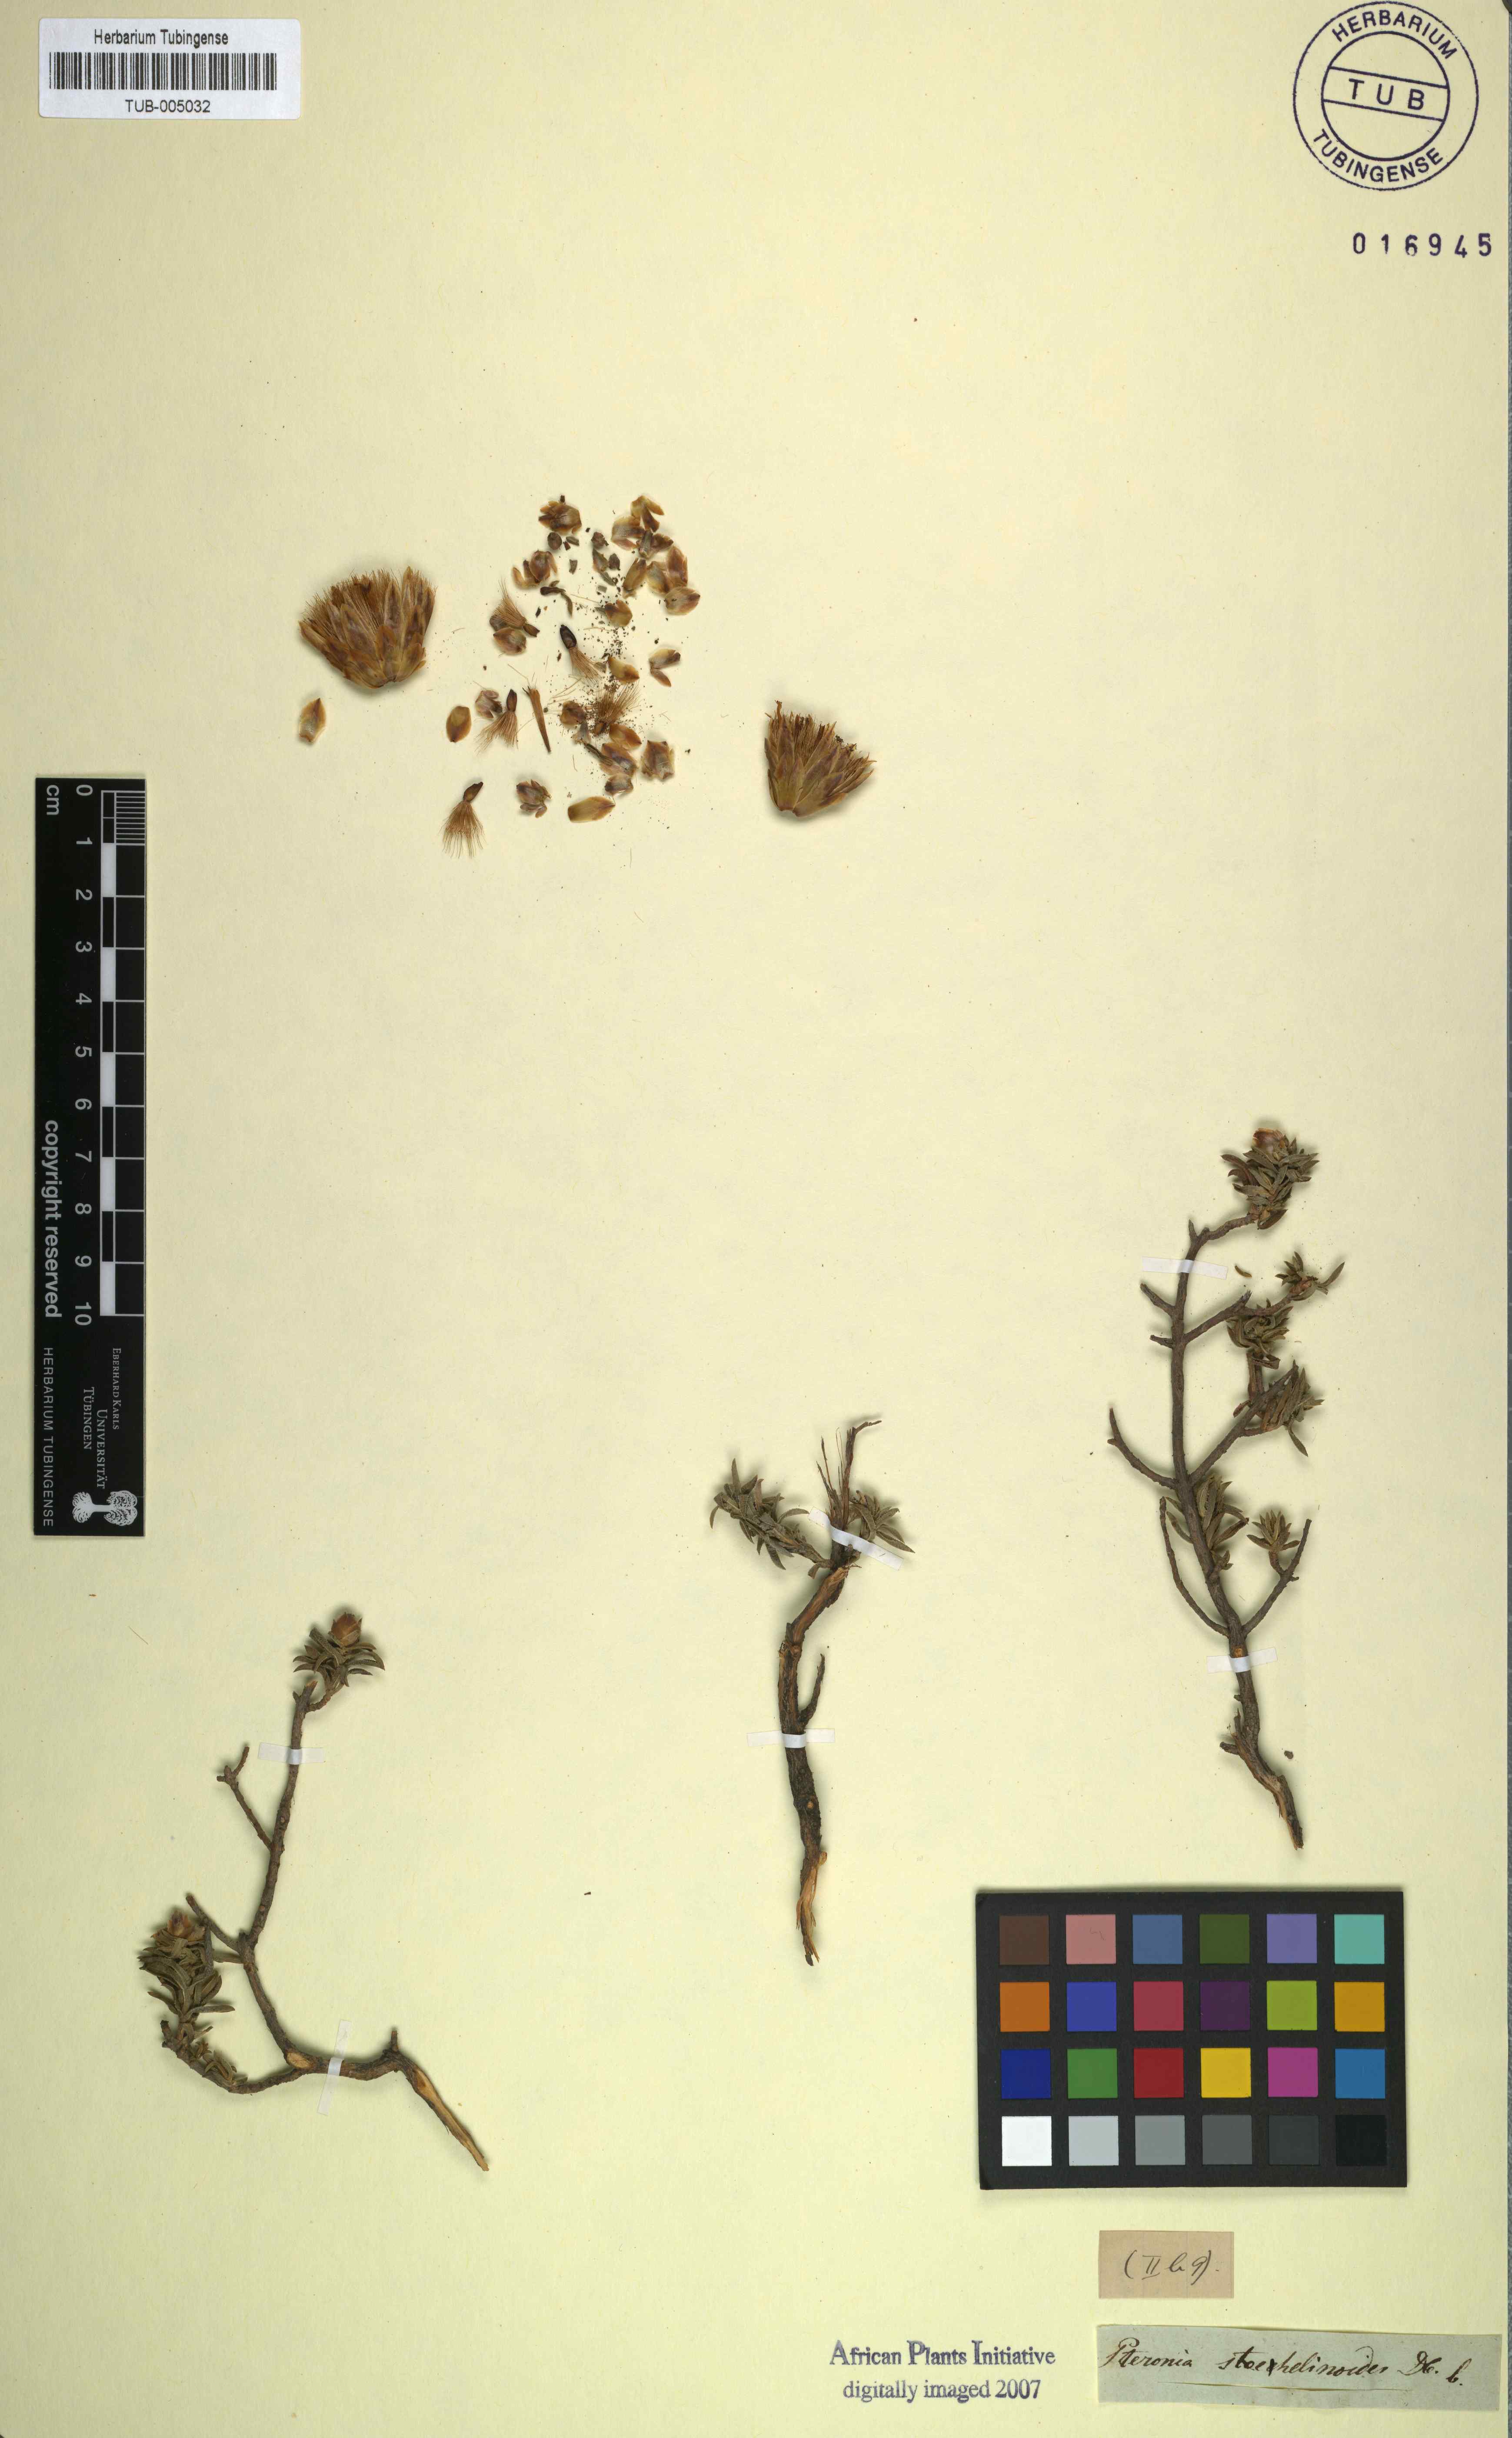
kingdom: Plantae
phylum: Tracheophyta
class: Magnoliopsida
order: Asterales
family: Asteraceae
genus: Pteronia
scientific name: Pteronia stoehelinoides
